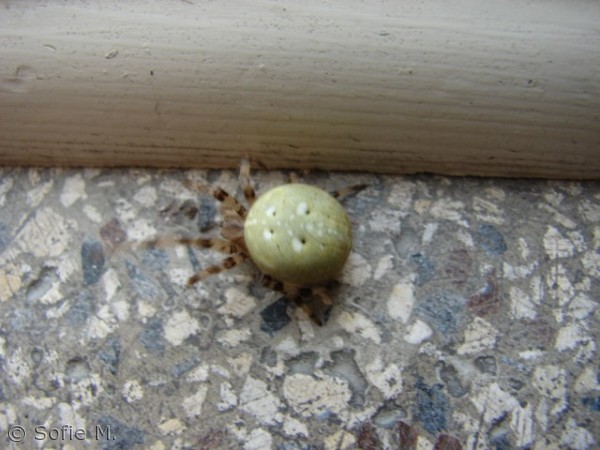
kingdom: Animalia
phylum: Arthropoda
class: Arachnida
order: Araneae
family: Araneidae
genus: Araneus
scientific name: Araneus quadratus
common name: Kvadratedderkop
